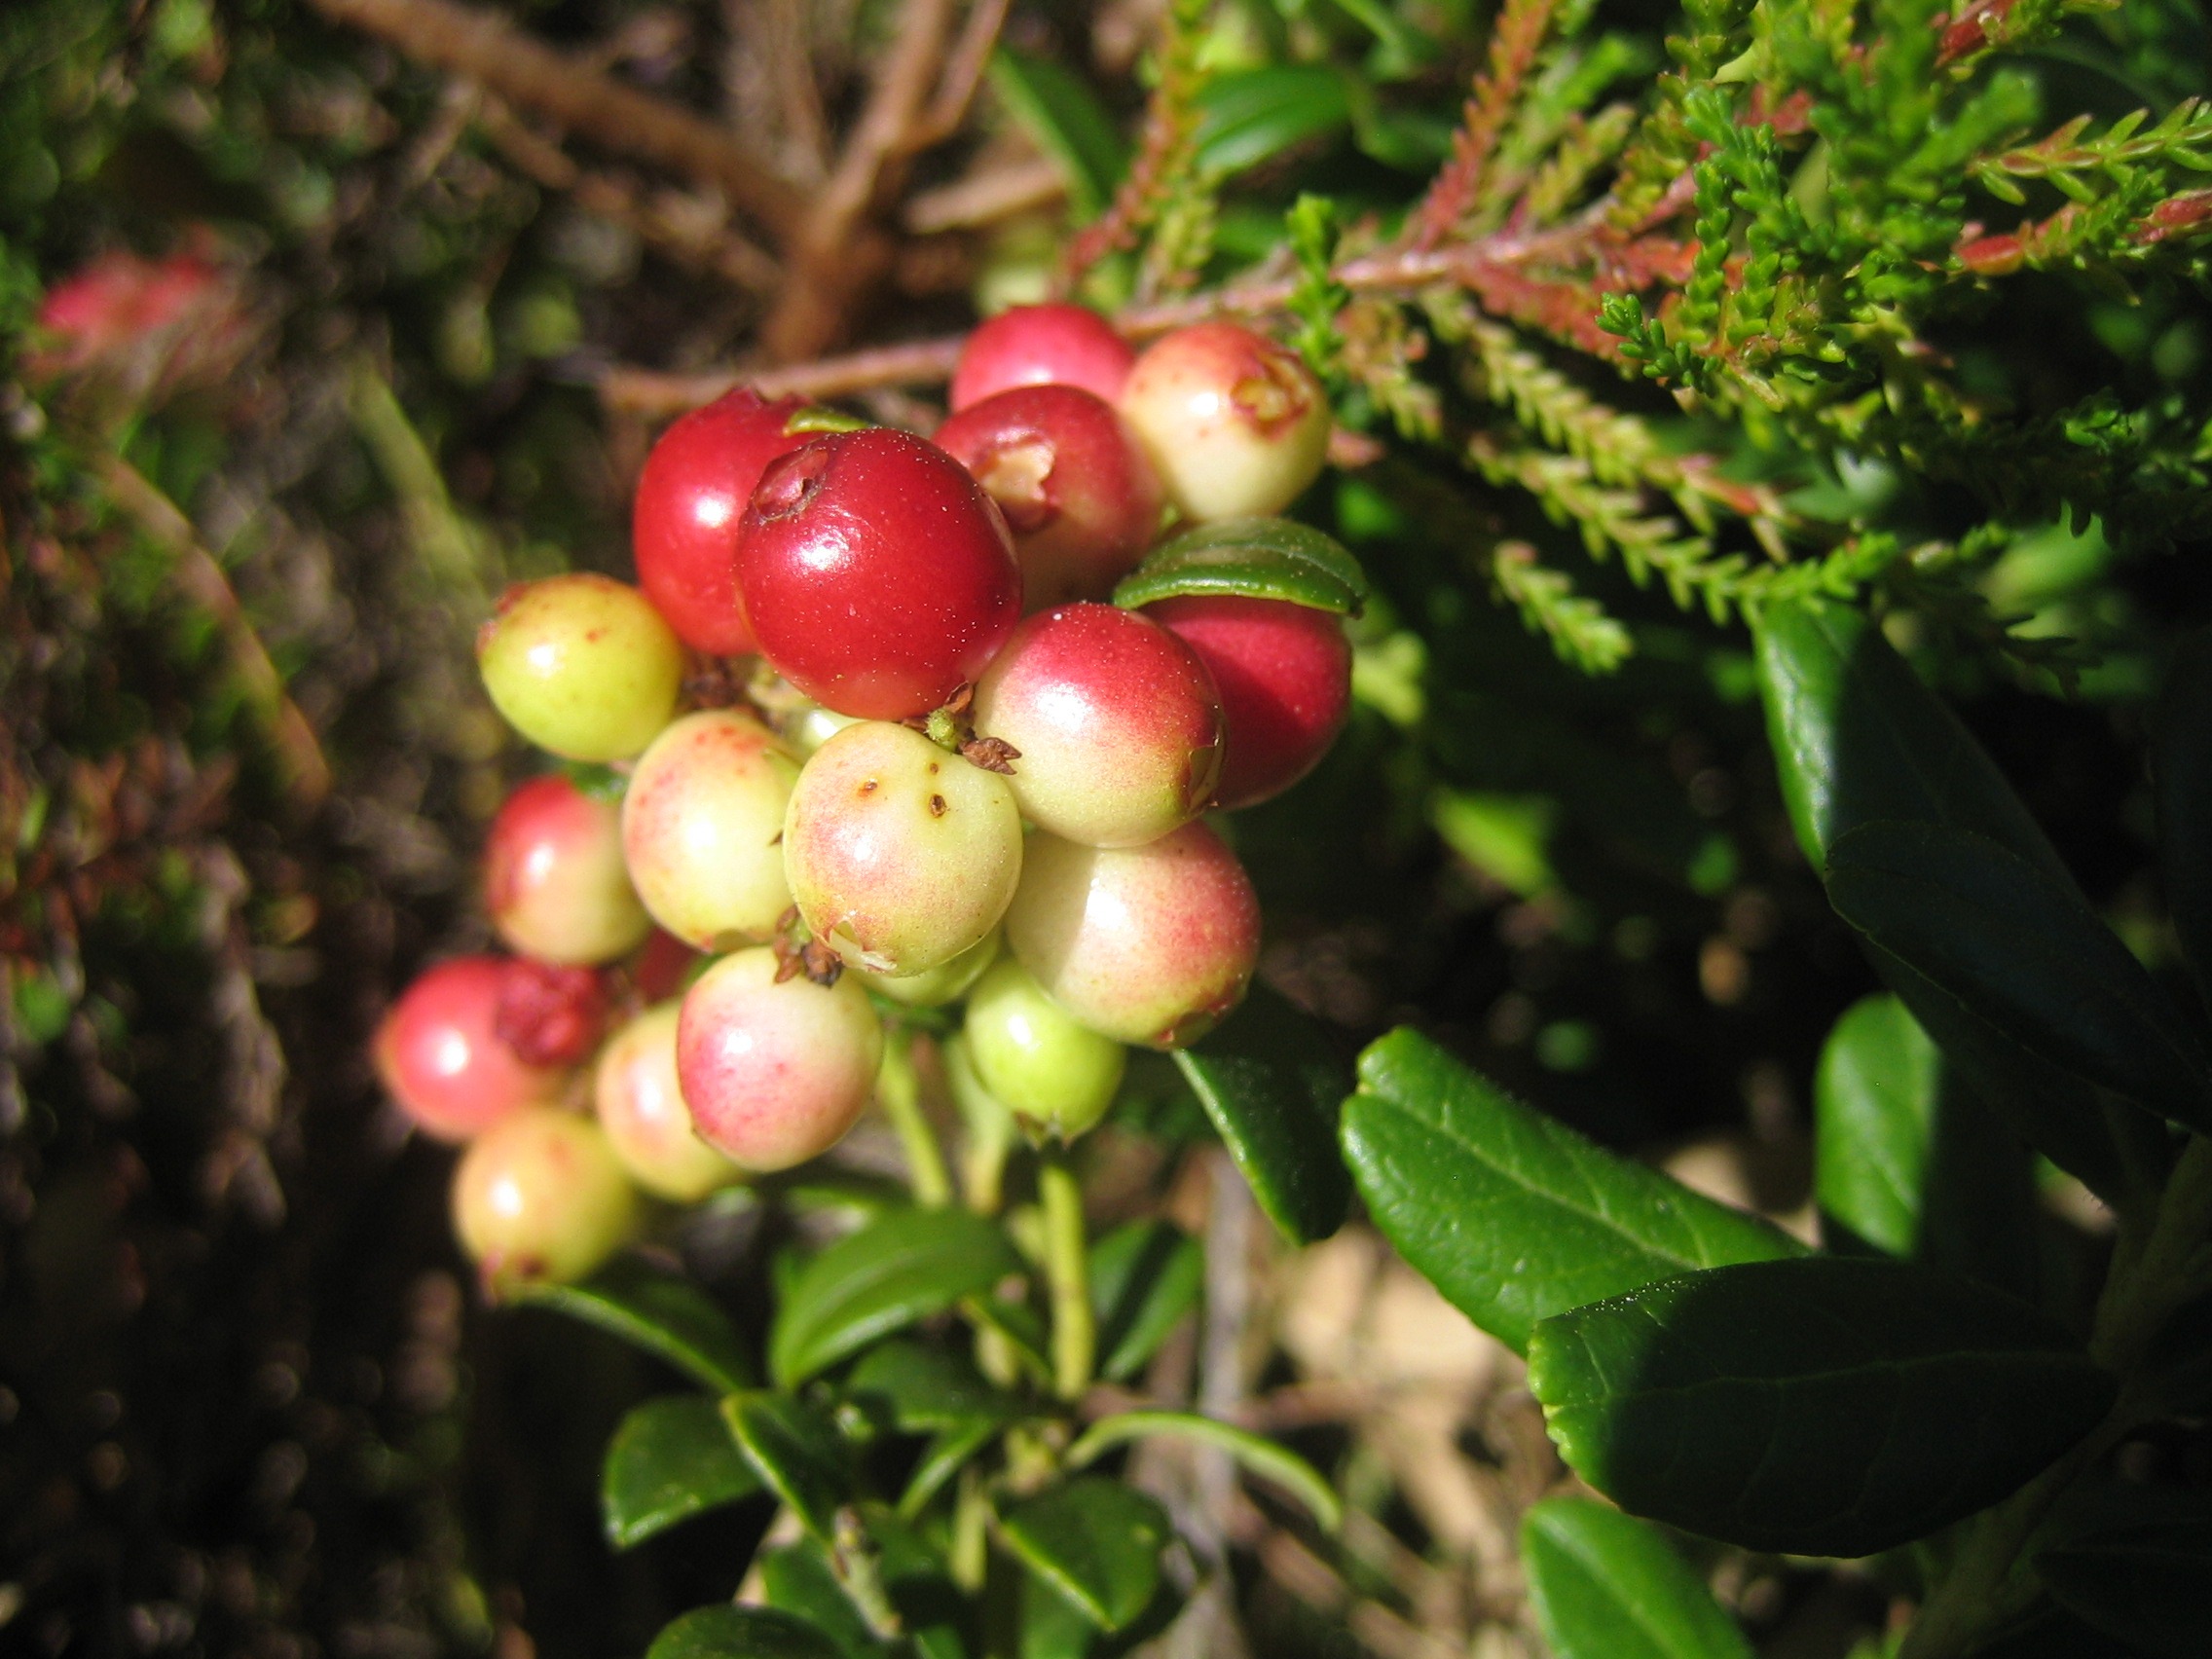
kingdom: Plantae
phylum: Tracheophyta
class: Magnoliopsida
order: Ericales
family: Ericaceae
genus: Vaccinium
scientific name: Vaccinium vitis-idaea
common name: Tyttebær
